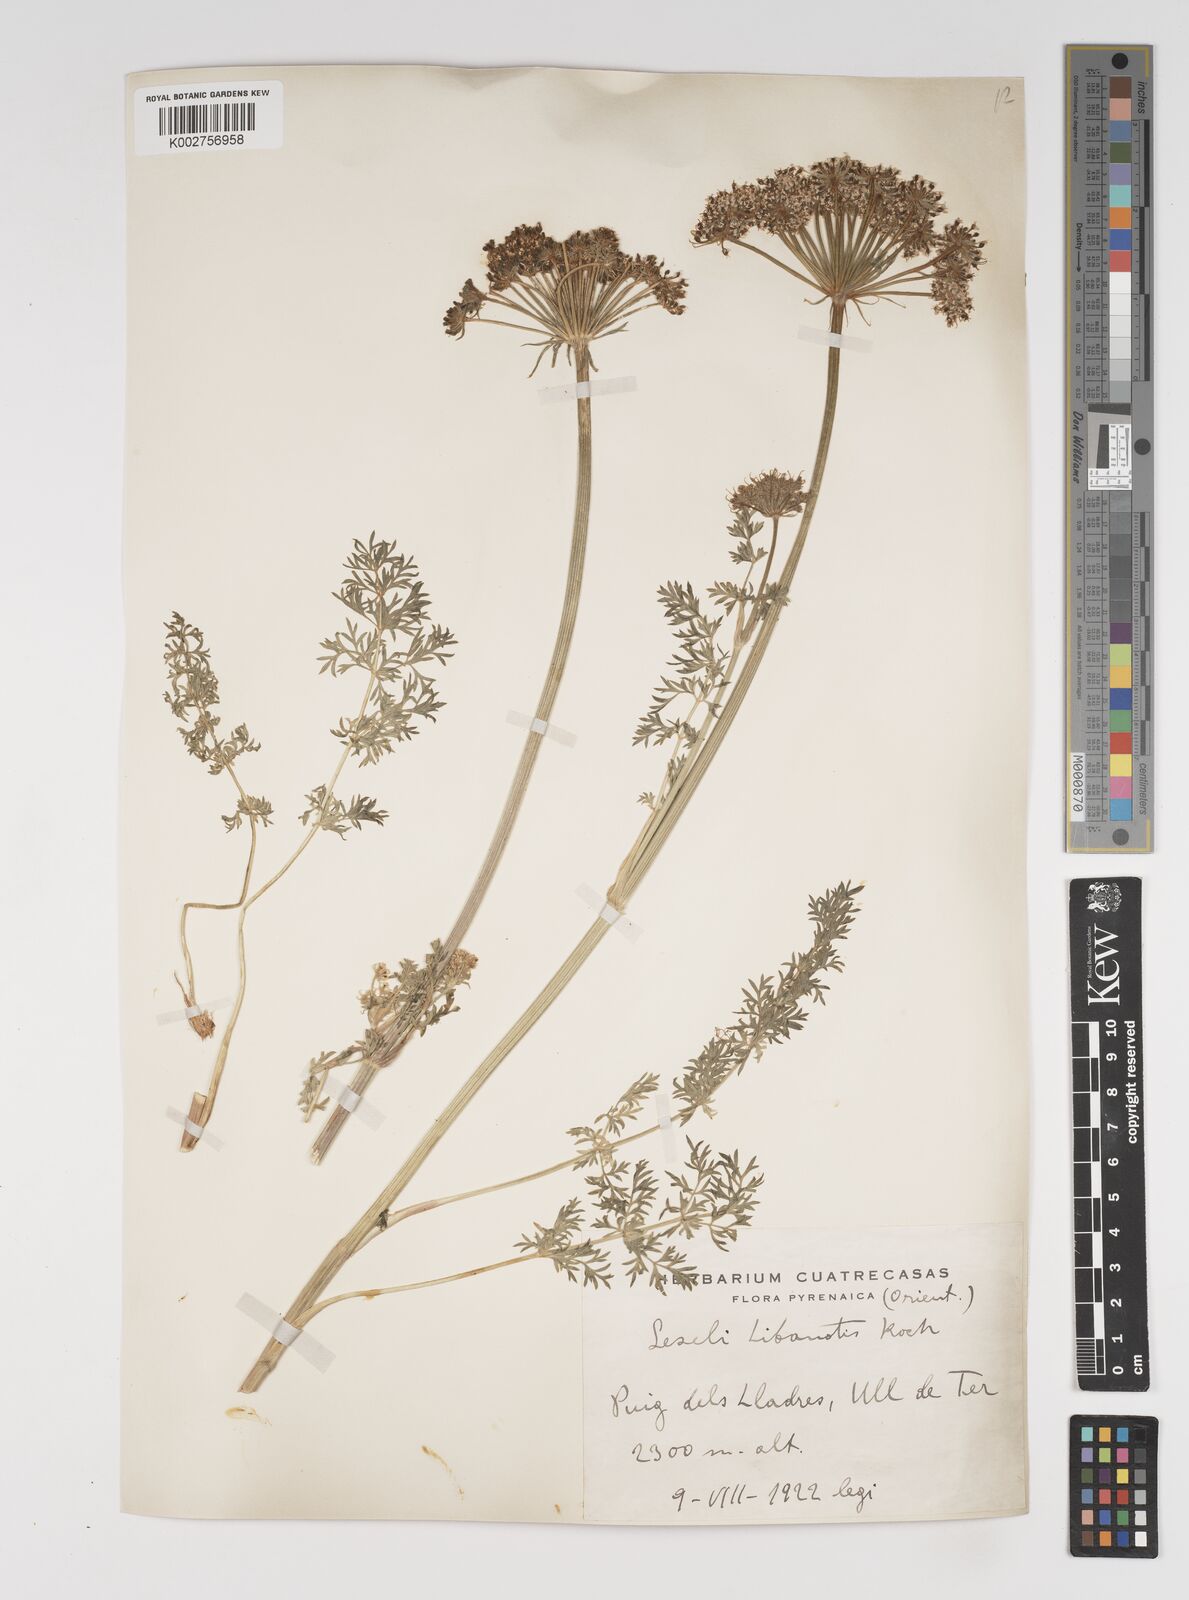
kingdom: Plantae
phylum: Tracheophyta
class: Magnoliopsida
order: Apiales
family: Apiaceae
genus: Seseli
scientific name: Seseli libanotis
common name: Mooncarrot
